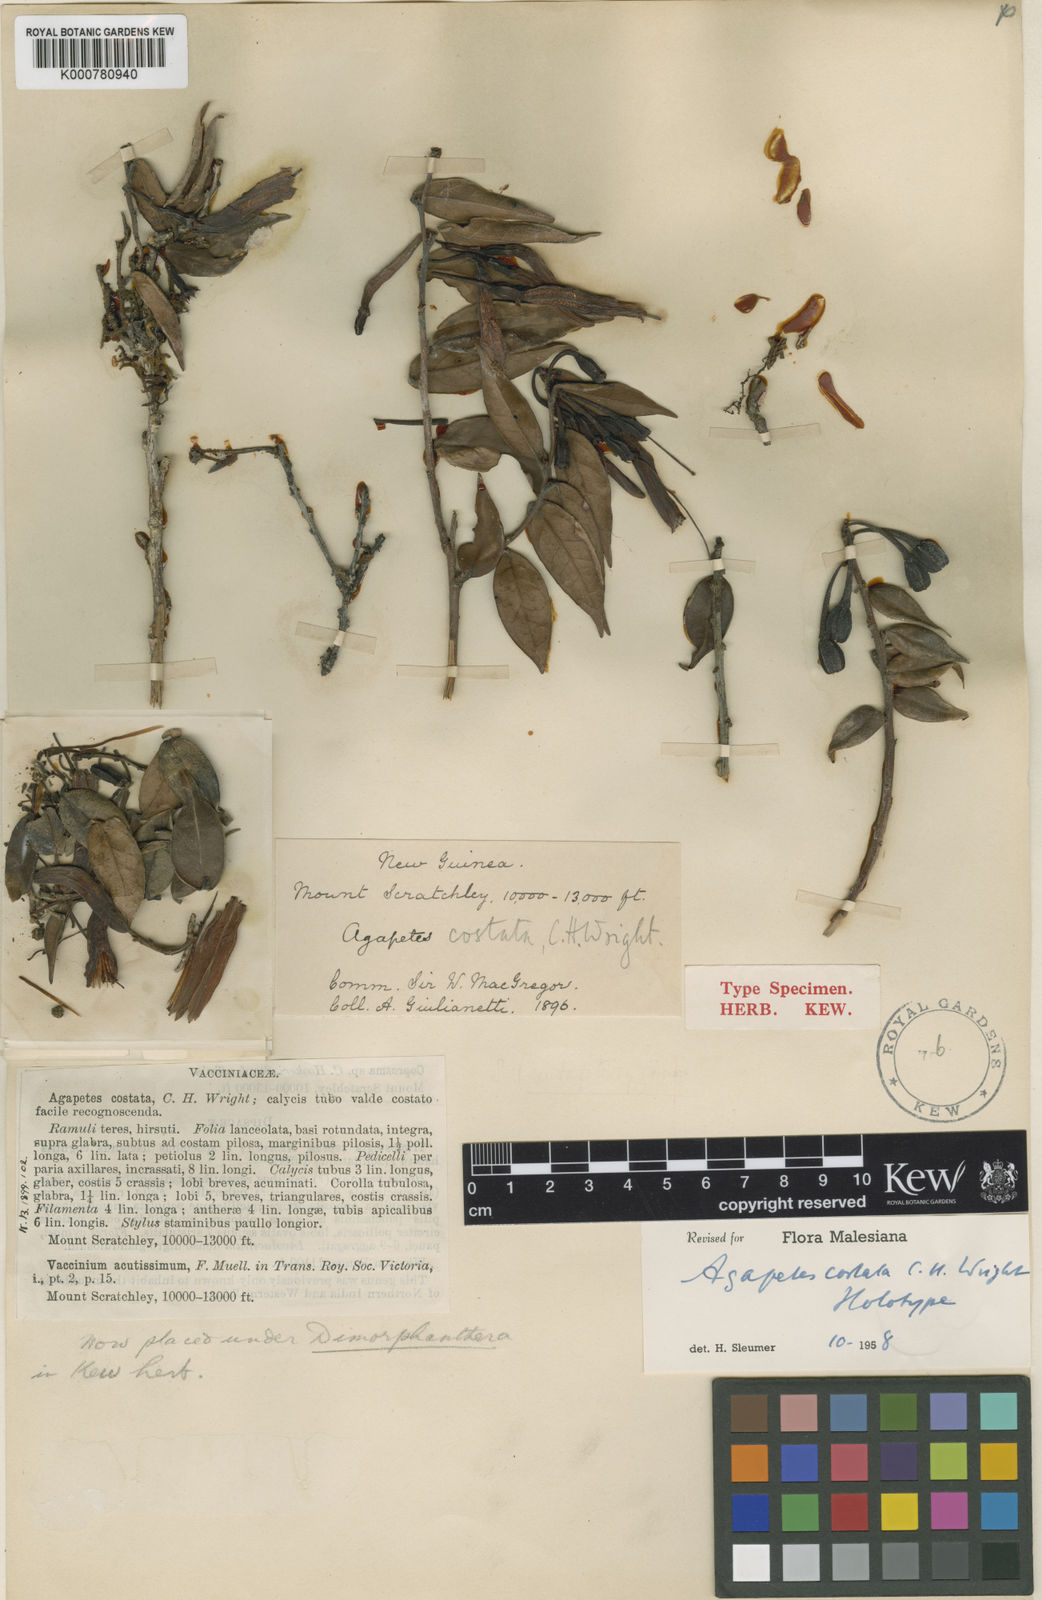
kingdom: Plantae
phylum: Tracheophyta
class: Magnoliopsida
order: Ericales
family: Ericaceae
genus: Paphia
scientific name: Paphia costata
